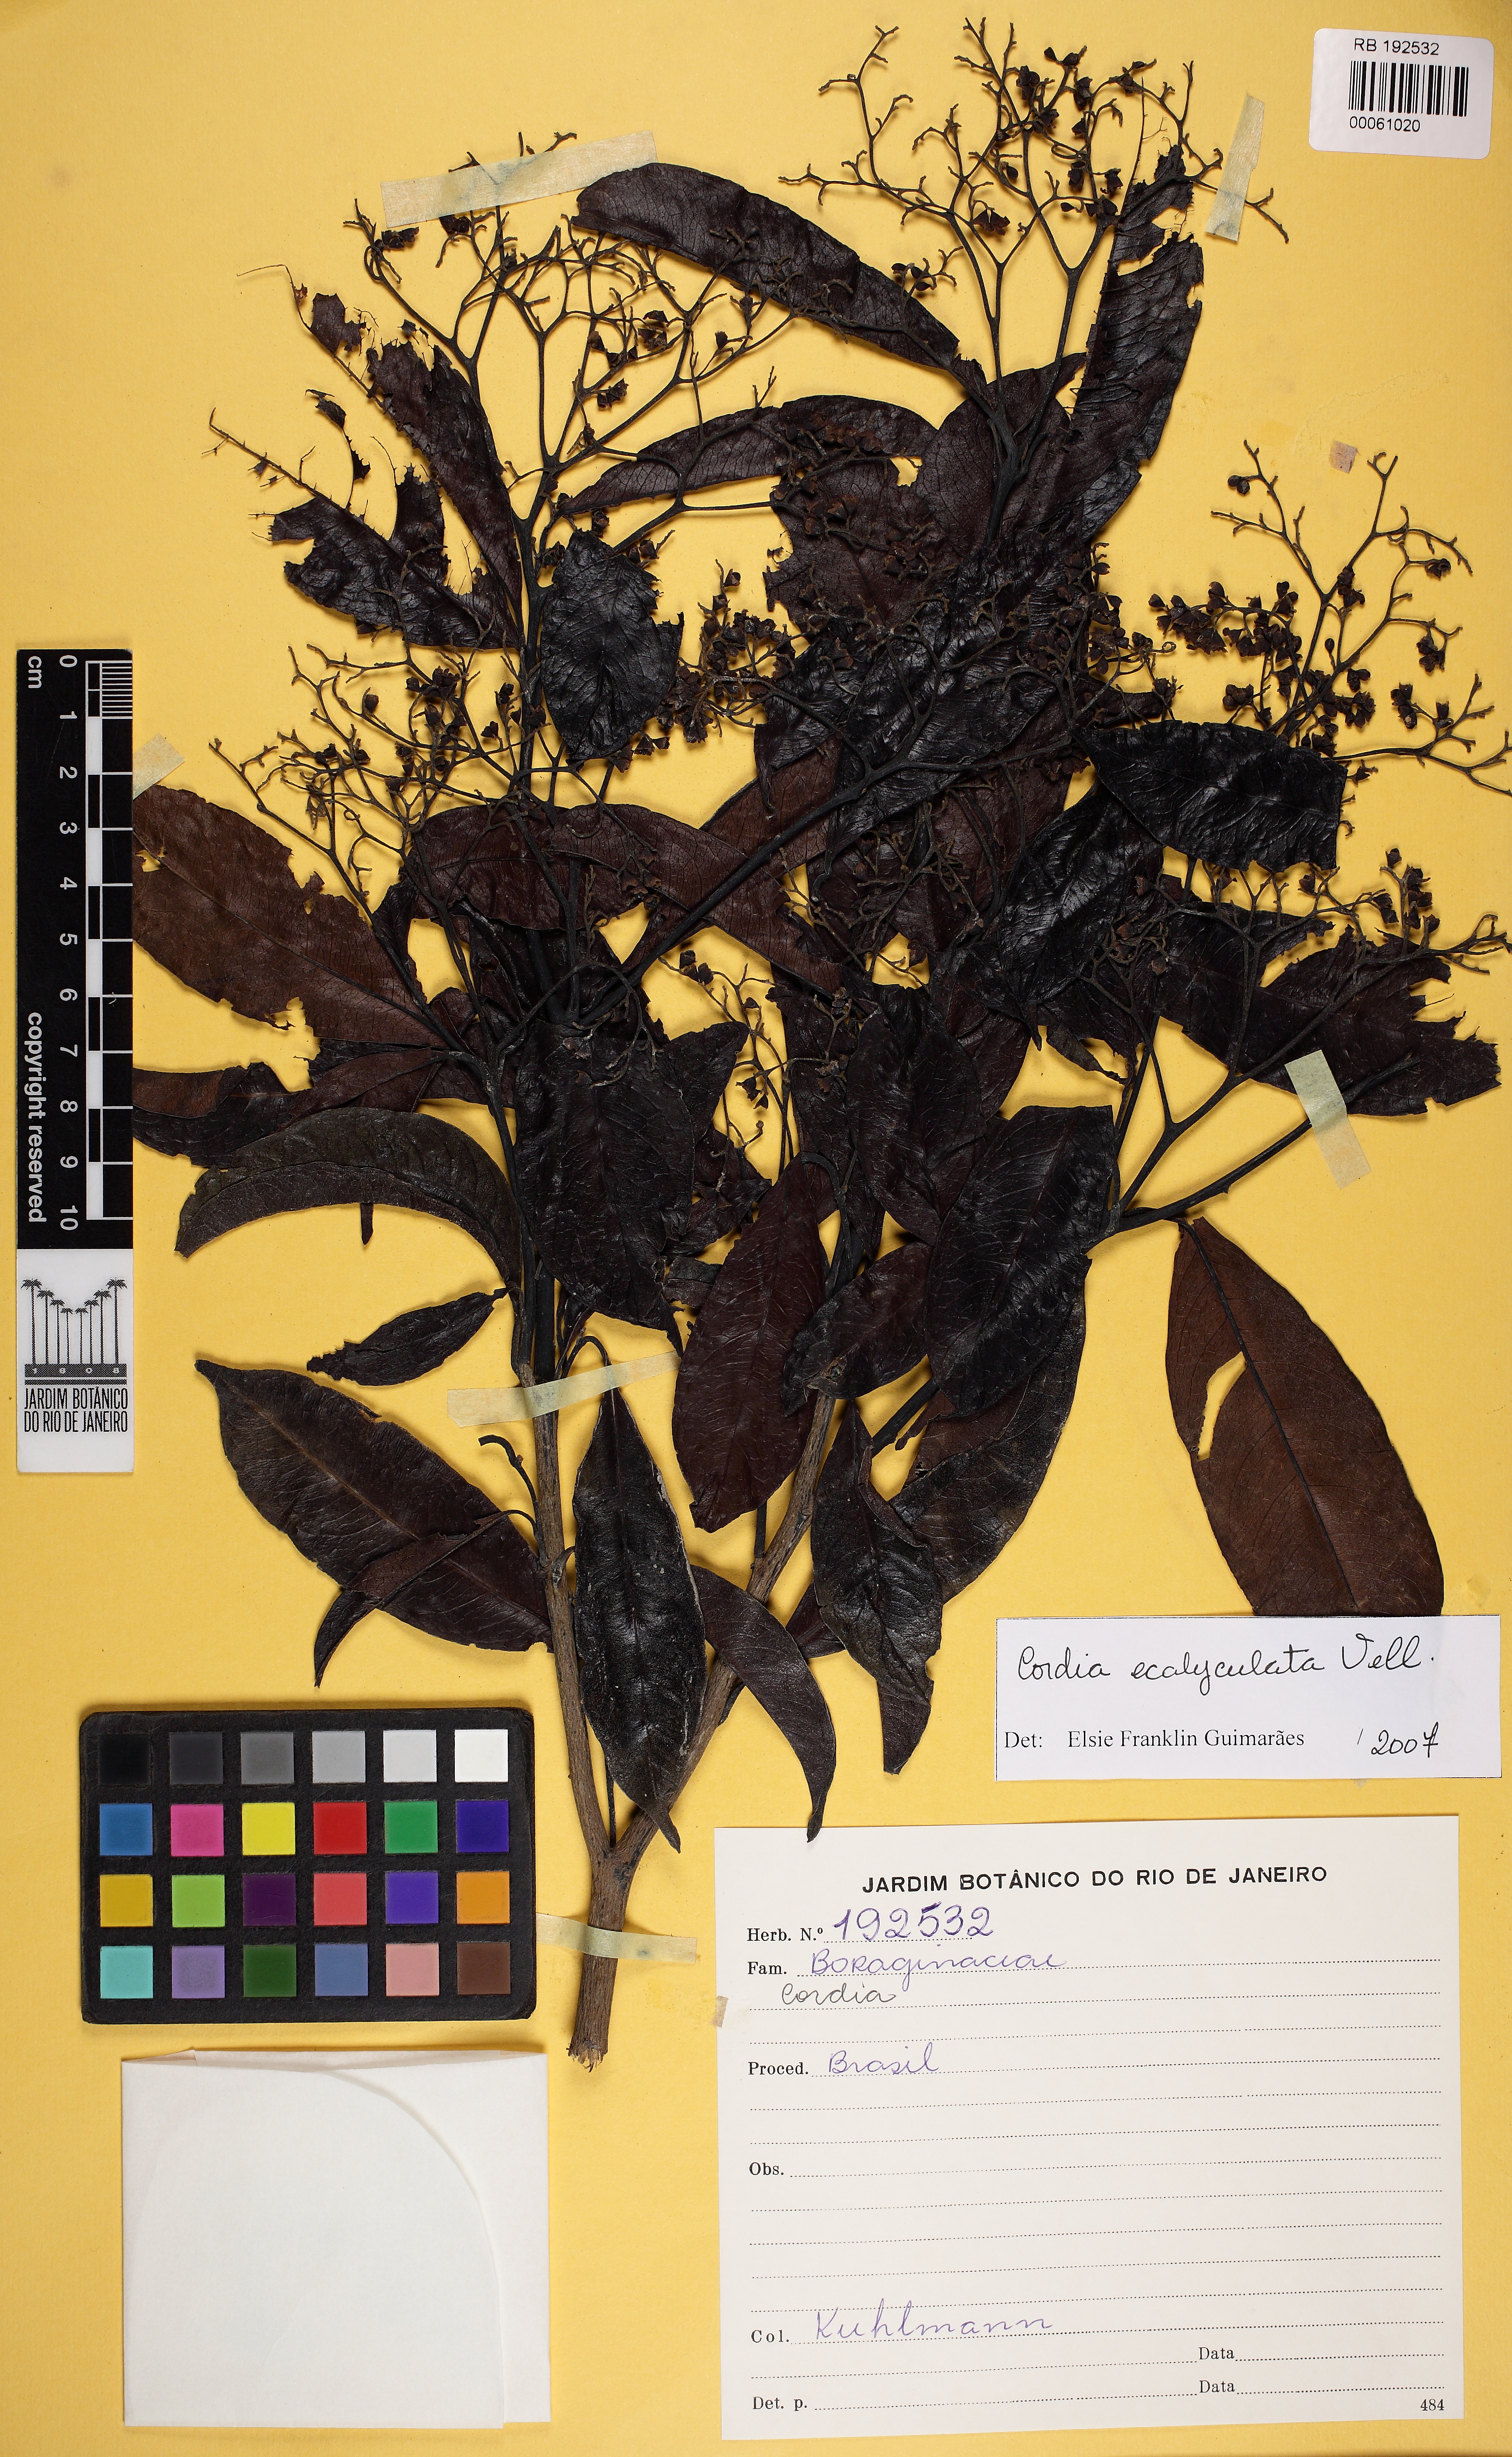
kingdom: Plantae
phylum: Tracheophyta
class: Magnoliopsida
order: Boraginales
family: Cordiaceae
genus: Cordia
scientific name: Cordia ecalyculata
